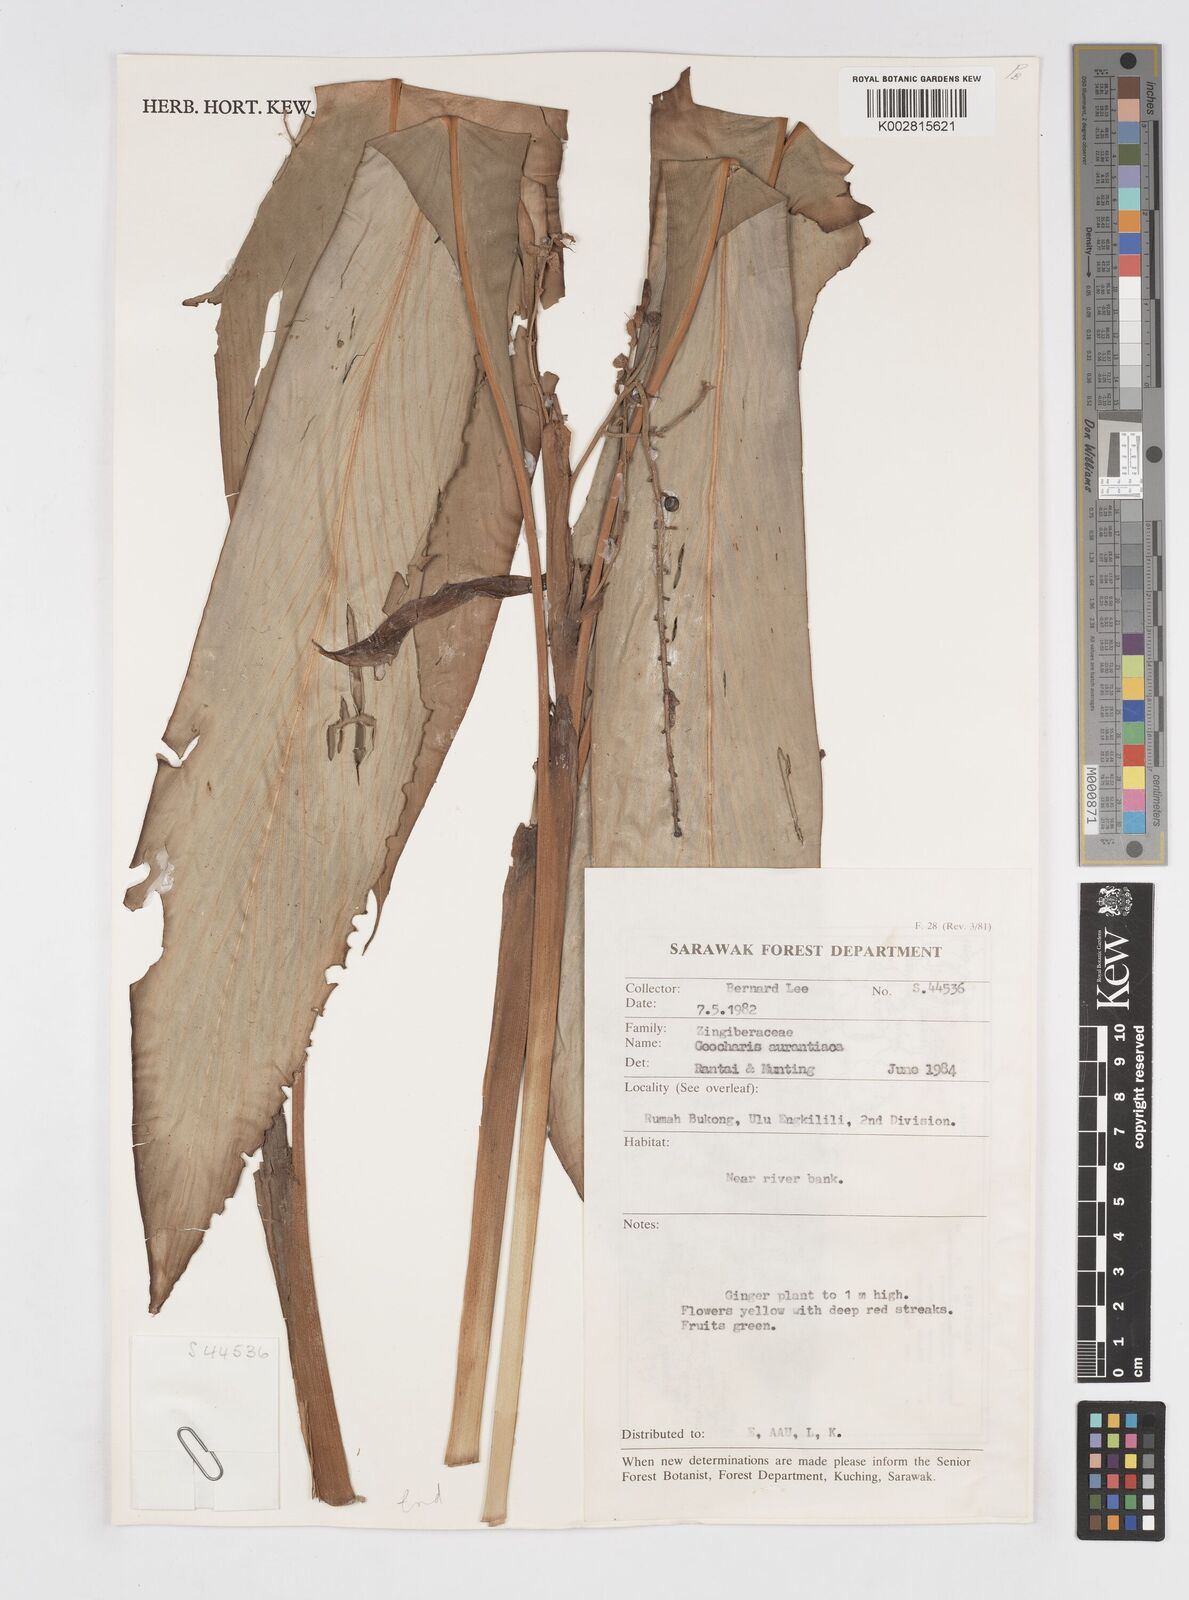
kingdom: Plantae
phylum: Tracheophyta
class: Liliopsida
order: Zingiberales
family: Zingiberaceae
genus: Alpinia
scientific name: Alpinia ligulata
